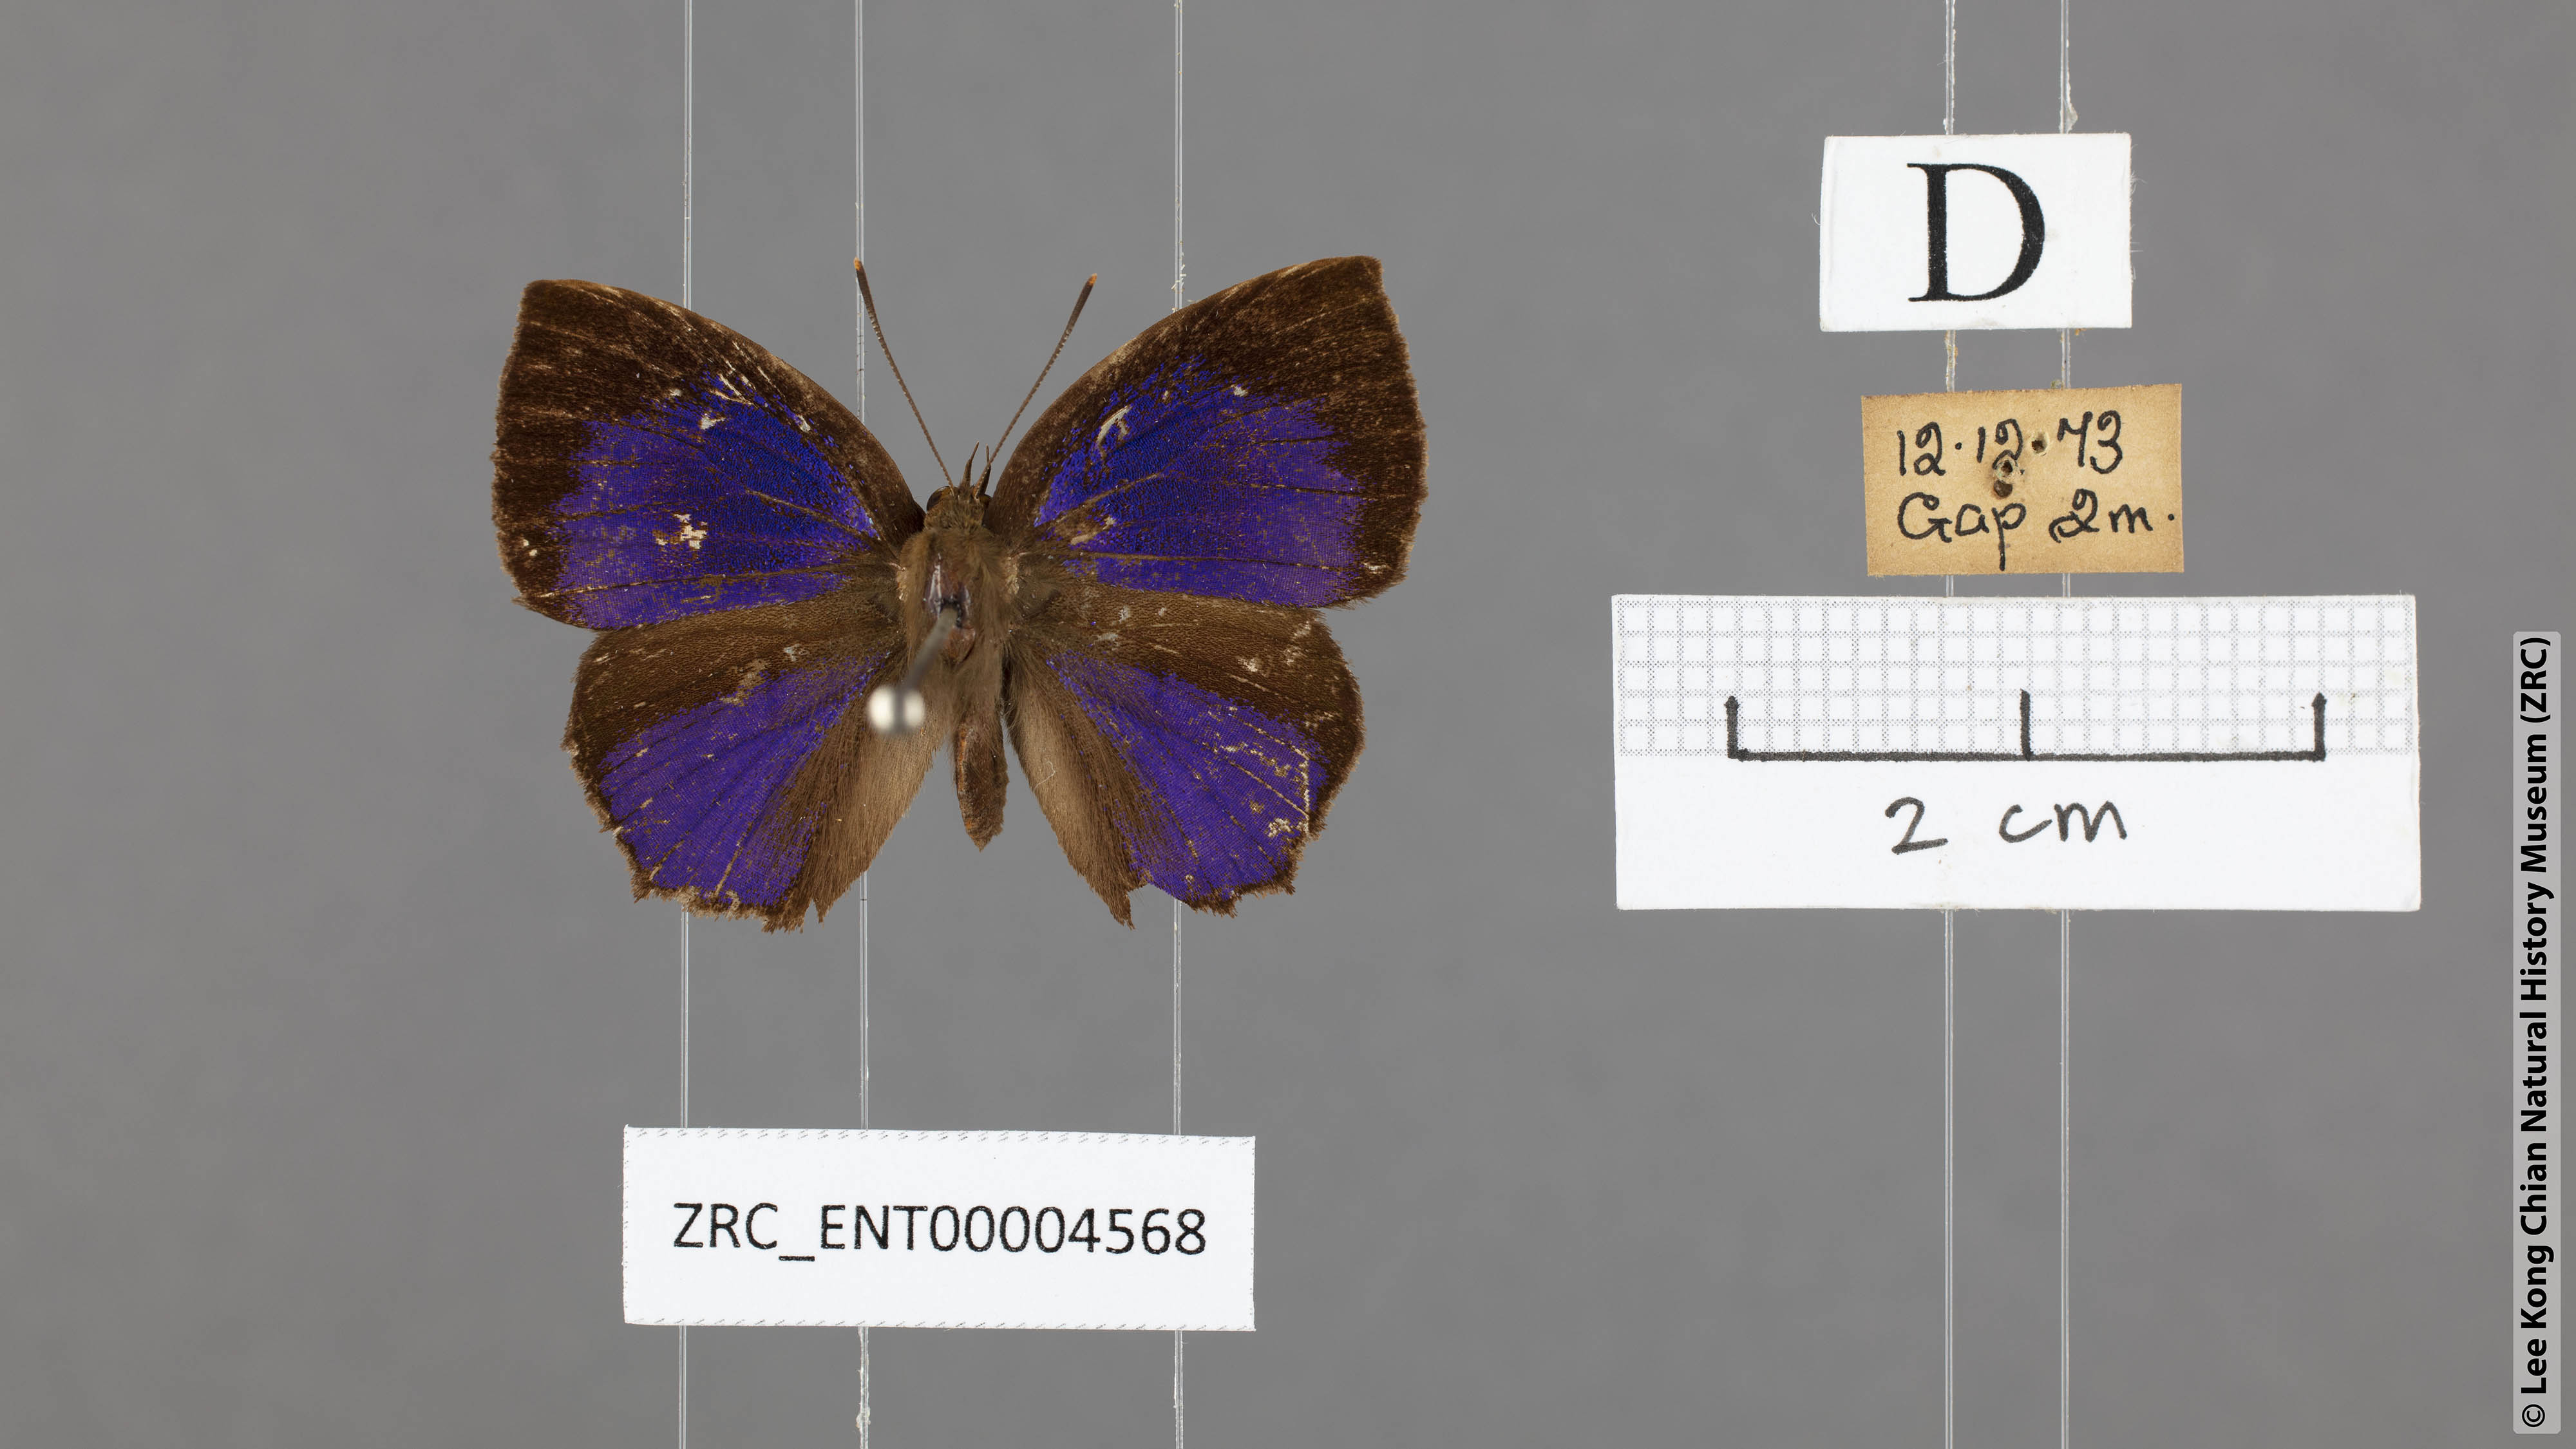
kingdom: Animalia
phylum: Arthropoda
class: Insecta
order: Lepidoptera
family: Lycaenidae
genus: Surendra
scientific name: Surendra florimel
